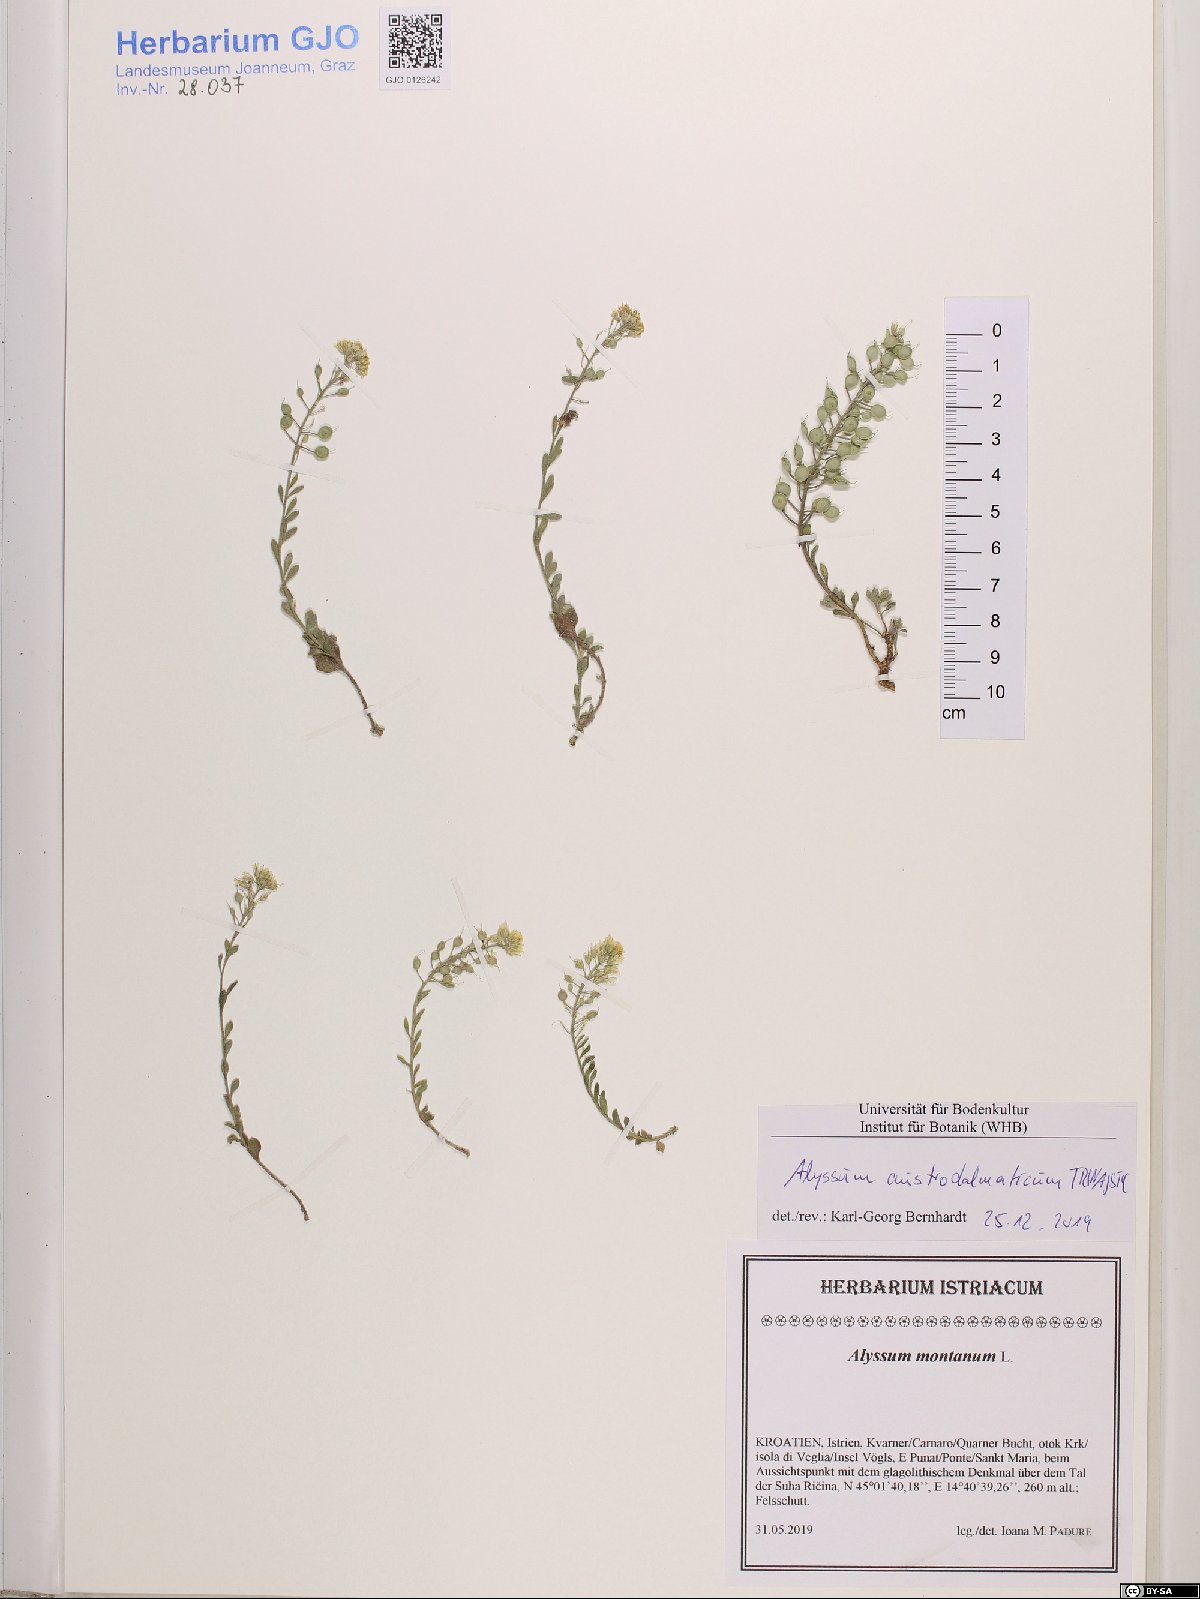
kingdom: Plantae
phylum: Tracheophyta
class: Magnoliopsida
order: Brassicales
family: Brassicaceae
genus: Alyssum
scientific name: Alyssum austrodalmaticum
